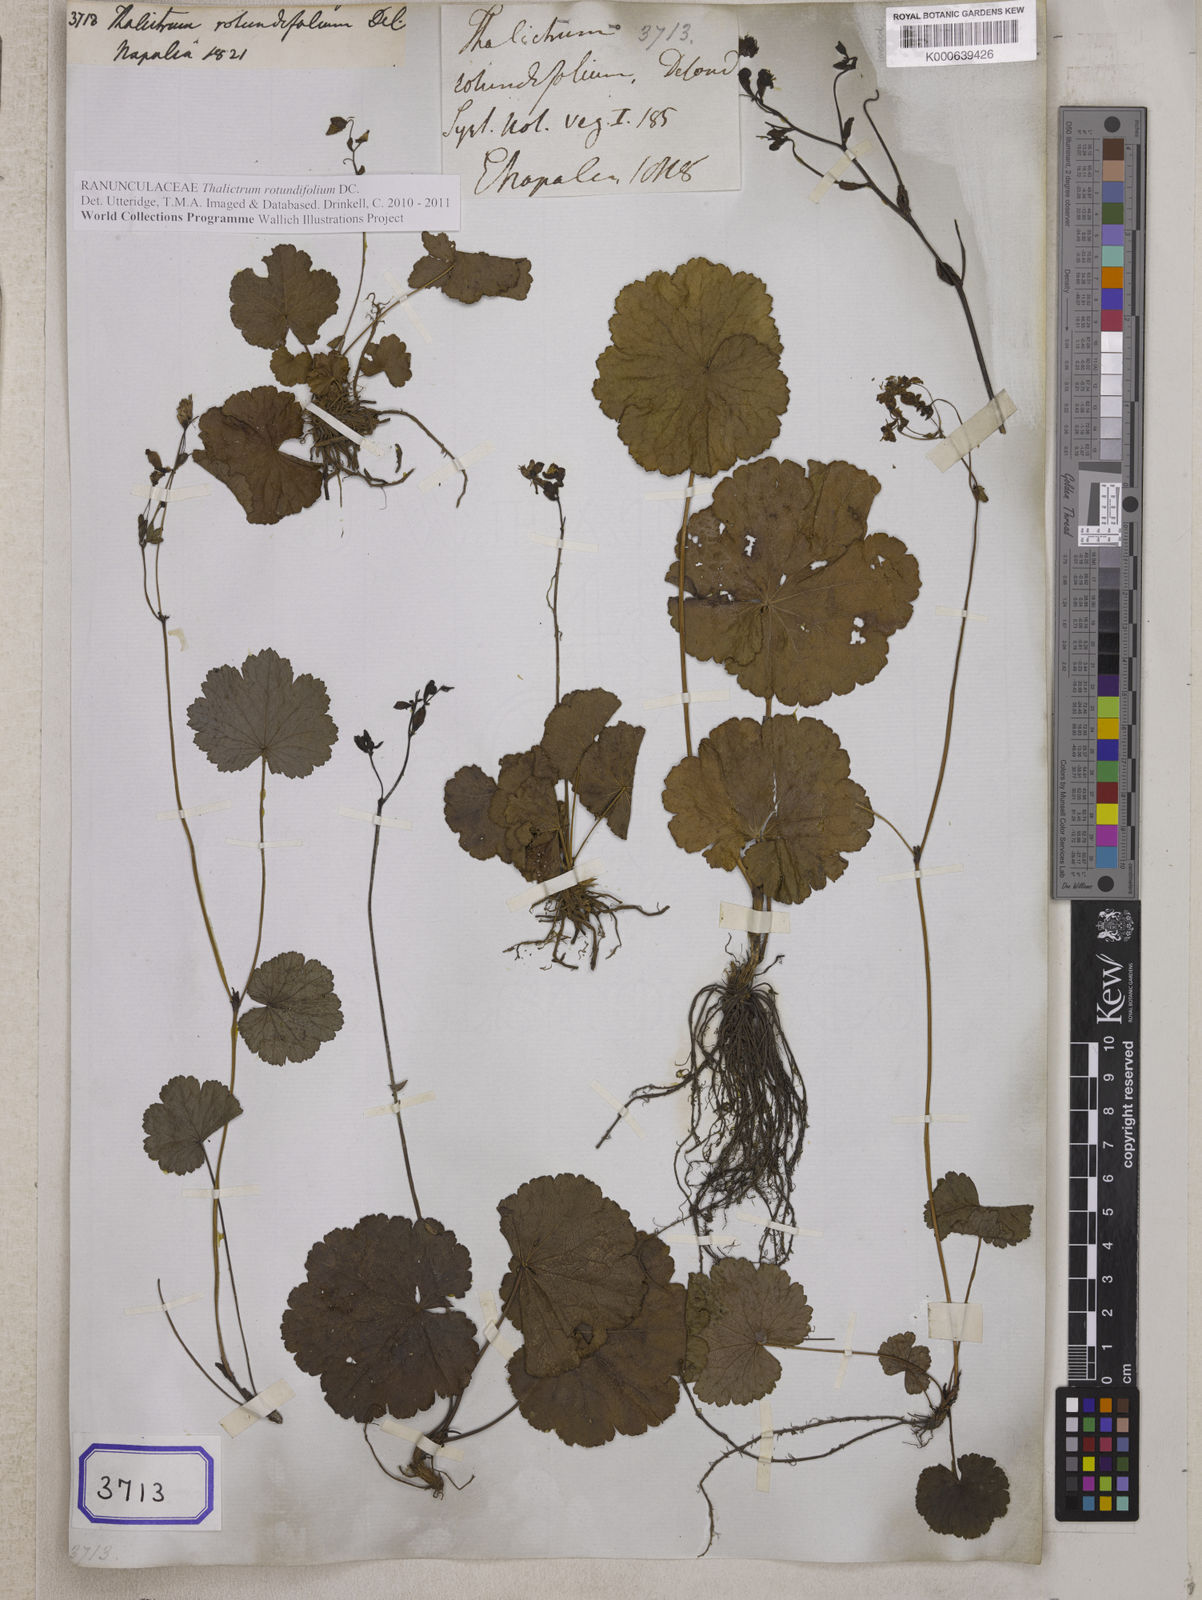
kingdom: Plantae
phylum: Tracheophyta
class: Magnoliopsida
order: Ranunculales
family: Ranunculaceae
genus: Thalictrum
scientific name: Thalictrum rotundifolium
